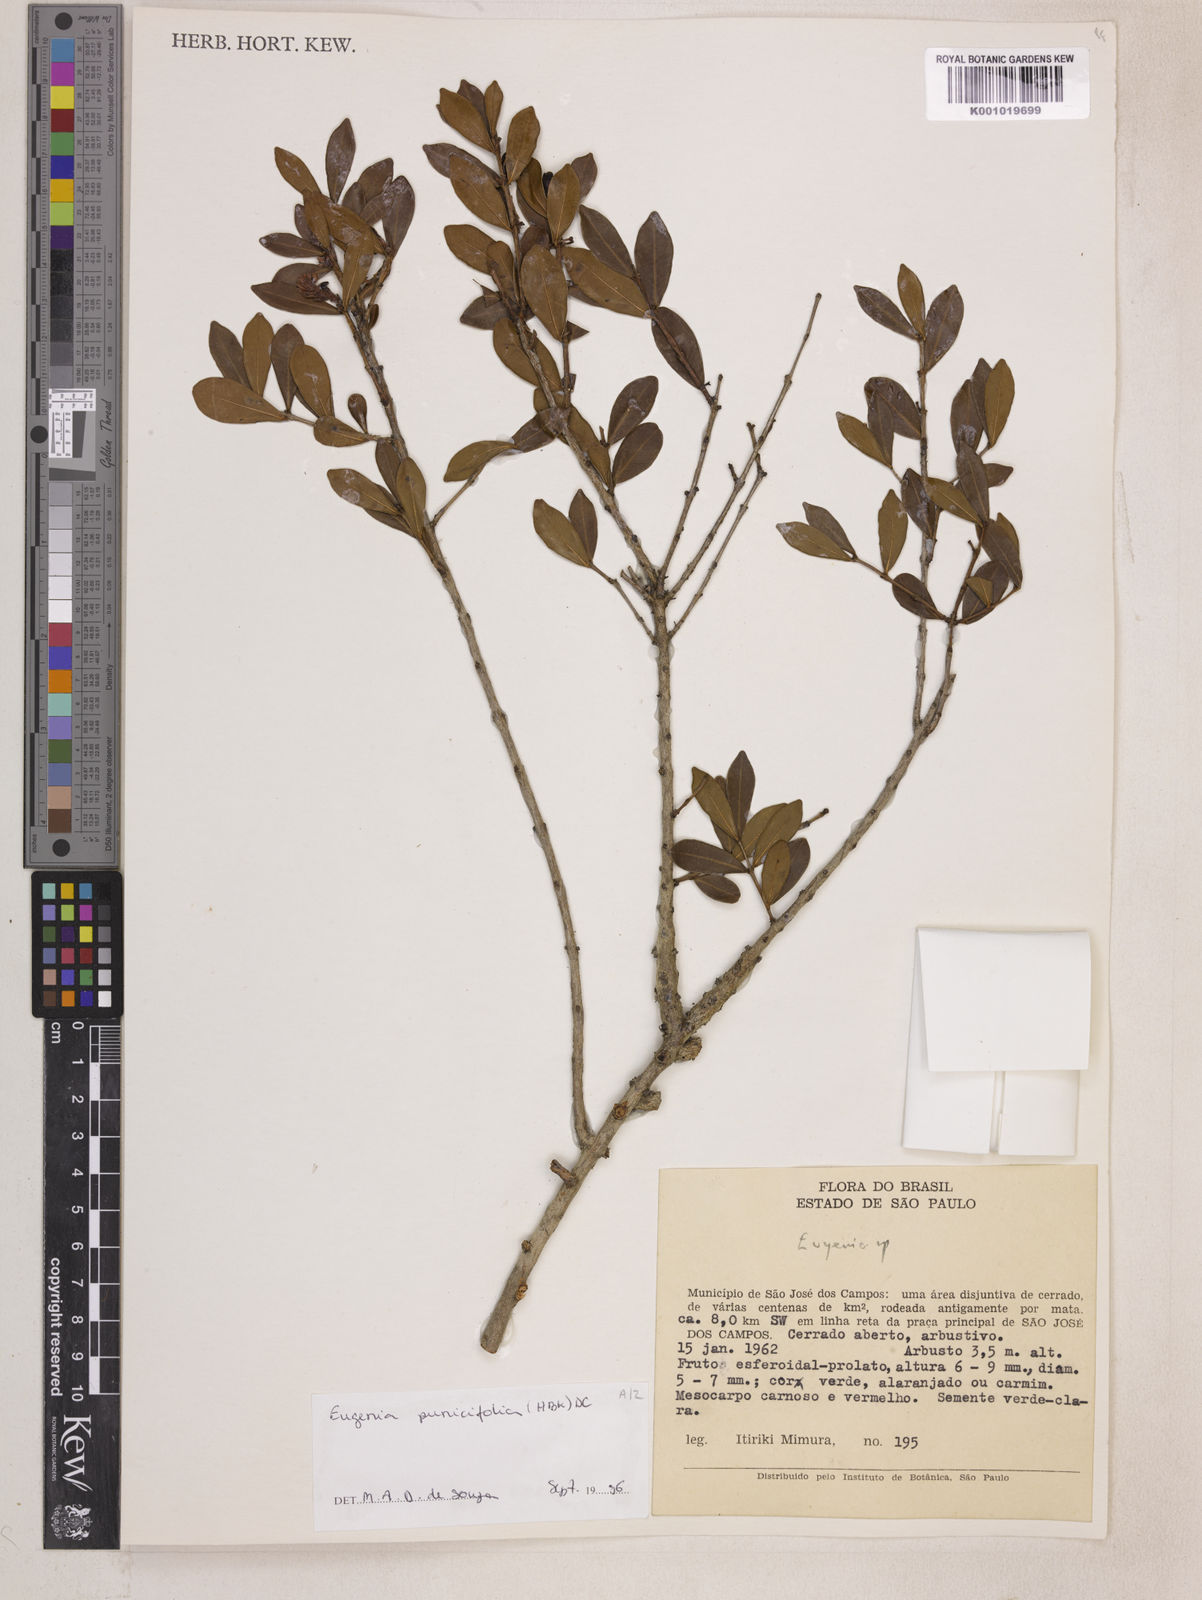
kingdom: Plantae
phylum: Tracheophyta
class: Magnoliopsida
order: Myrtales
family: Myrtaceae
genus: Eugenia
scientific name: Eugenia punicifolia
